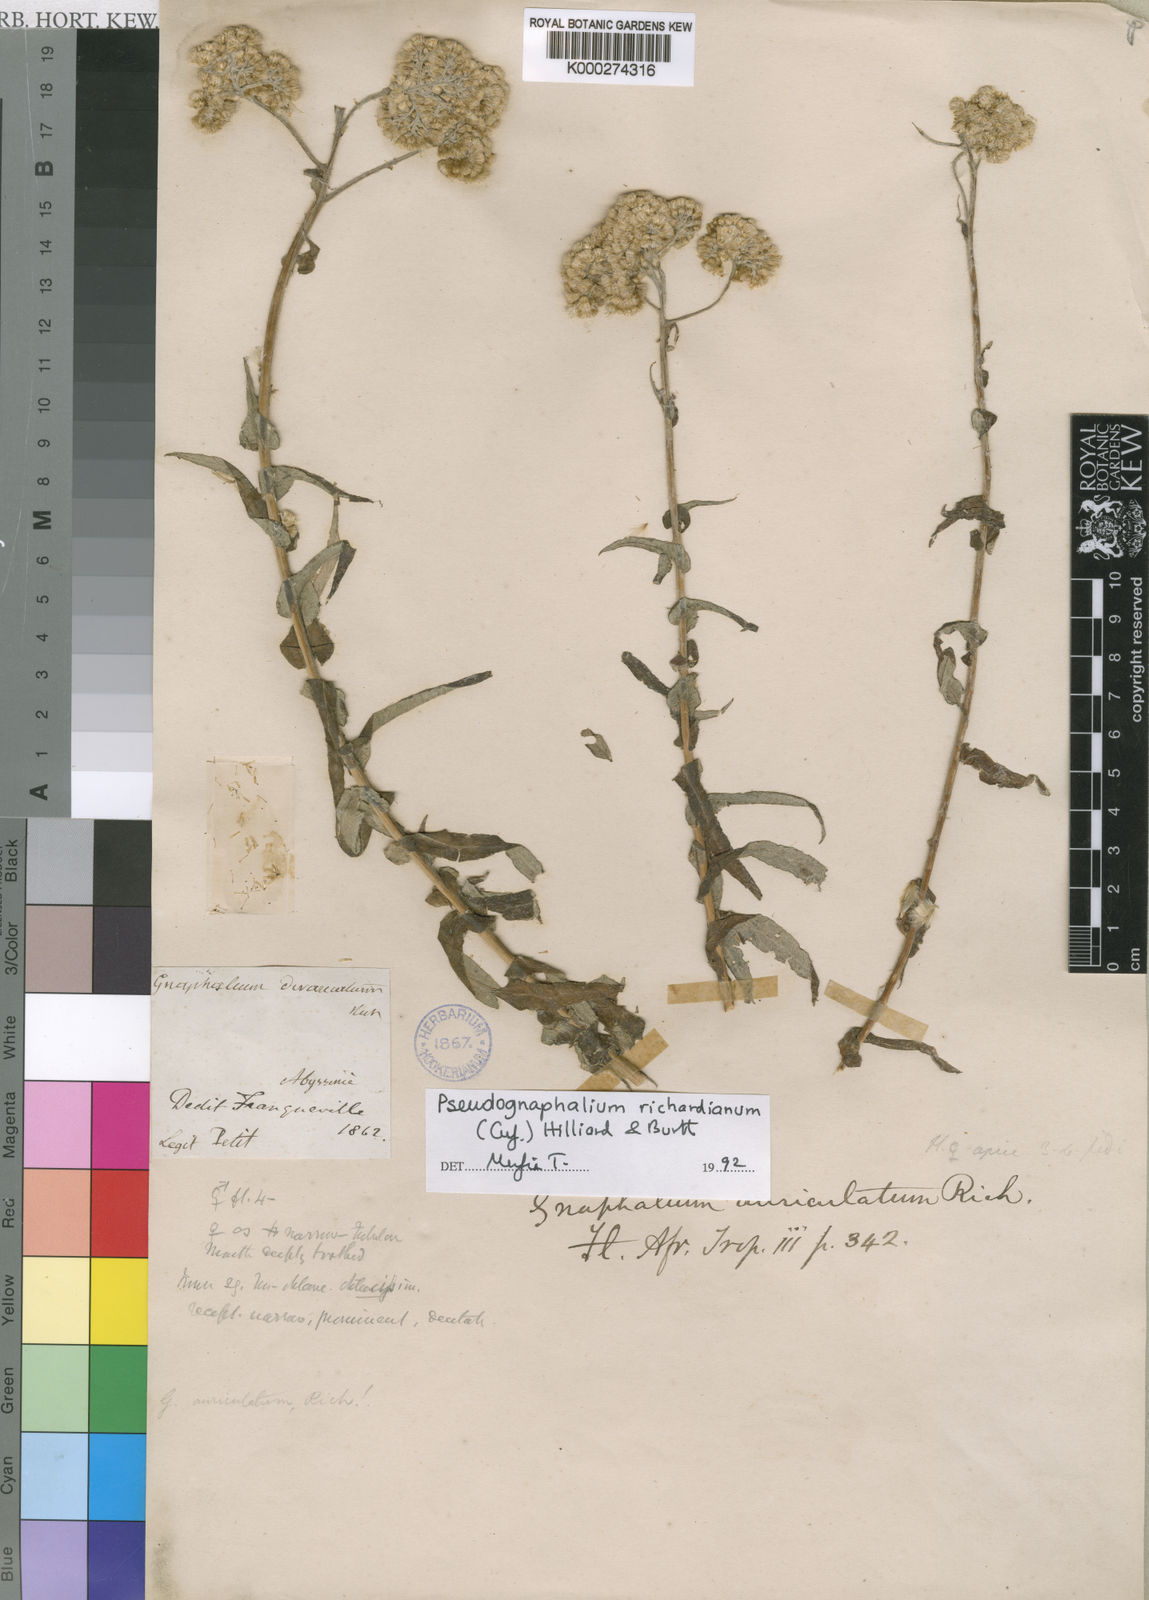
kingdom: Plantae
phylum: Tracheophyta
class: Magnoliopsida
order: Asterales
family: Asteraceae
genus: Pseudognaphalium
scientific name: Pseudognaphalium richardianum
